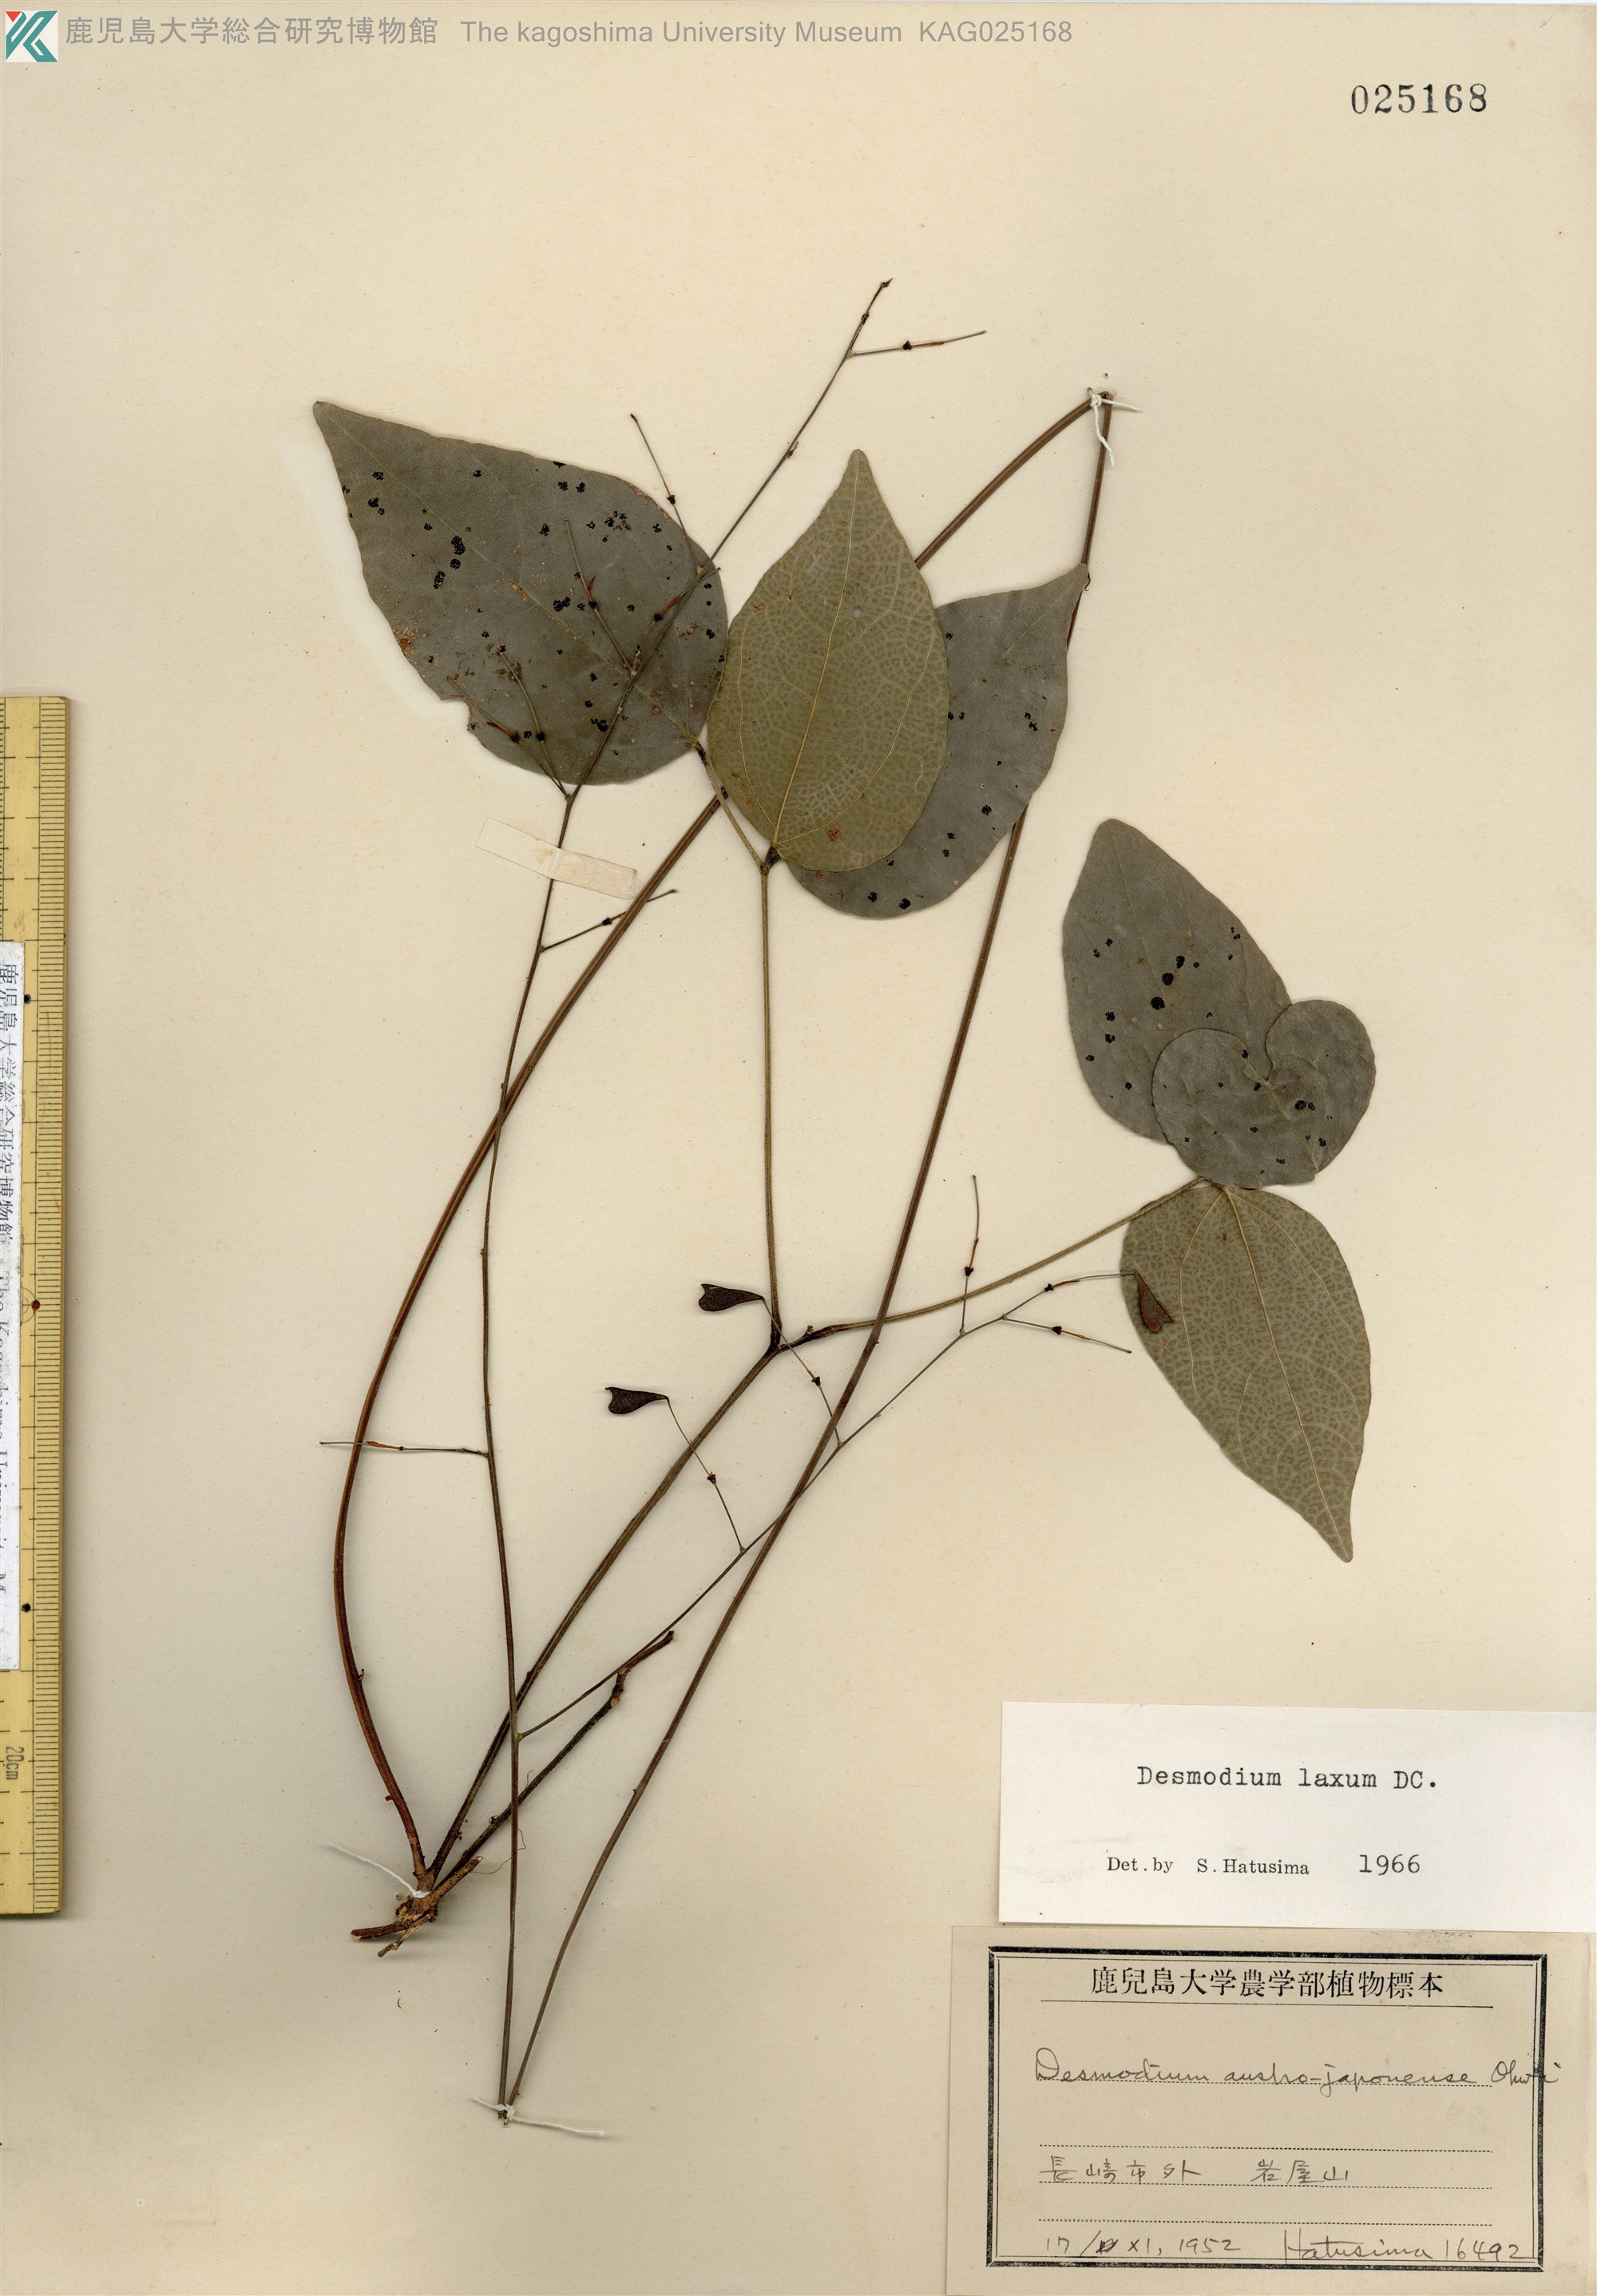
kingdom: Plantae
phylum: Tracheophyta
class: Magnoliopsida
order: Fabales
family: Fabaceae
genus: Desmodium
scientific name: Desmodium laxum
